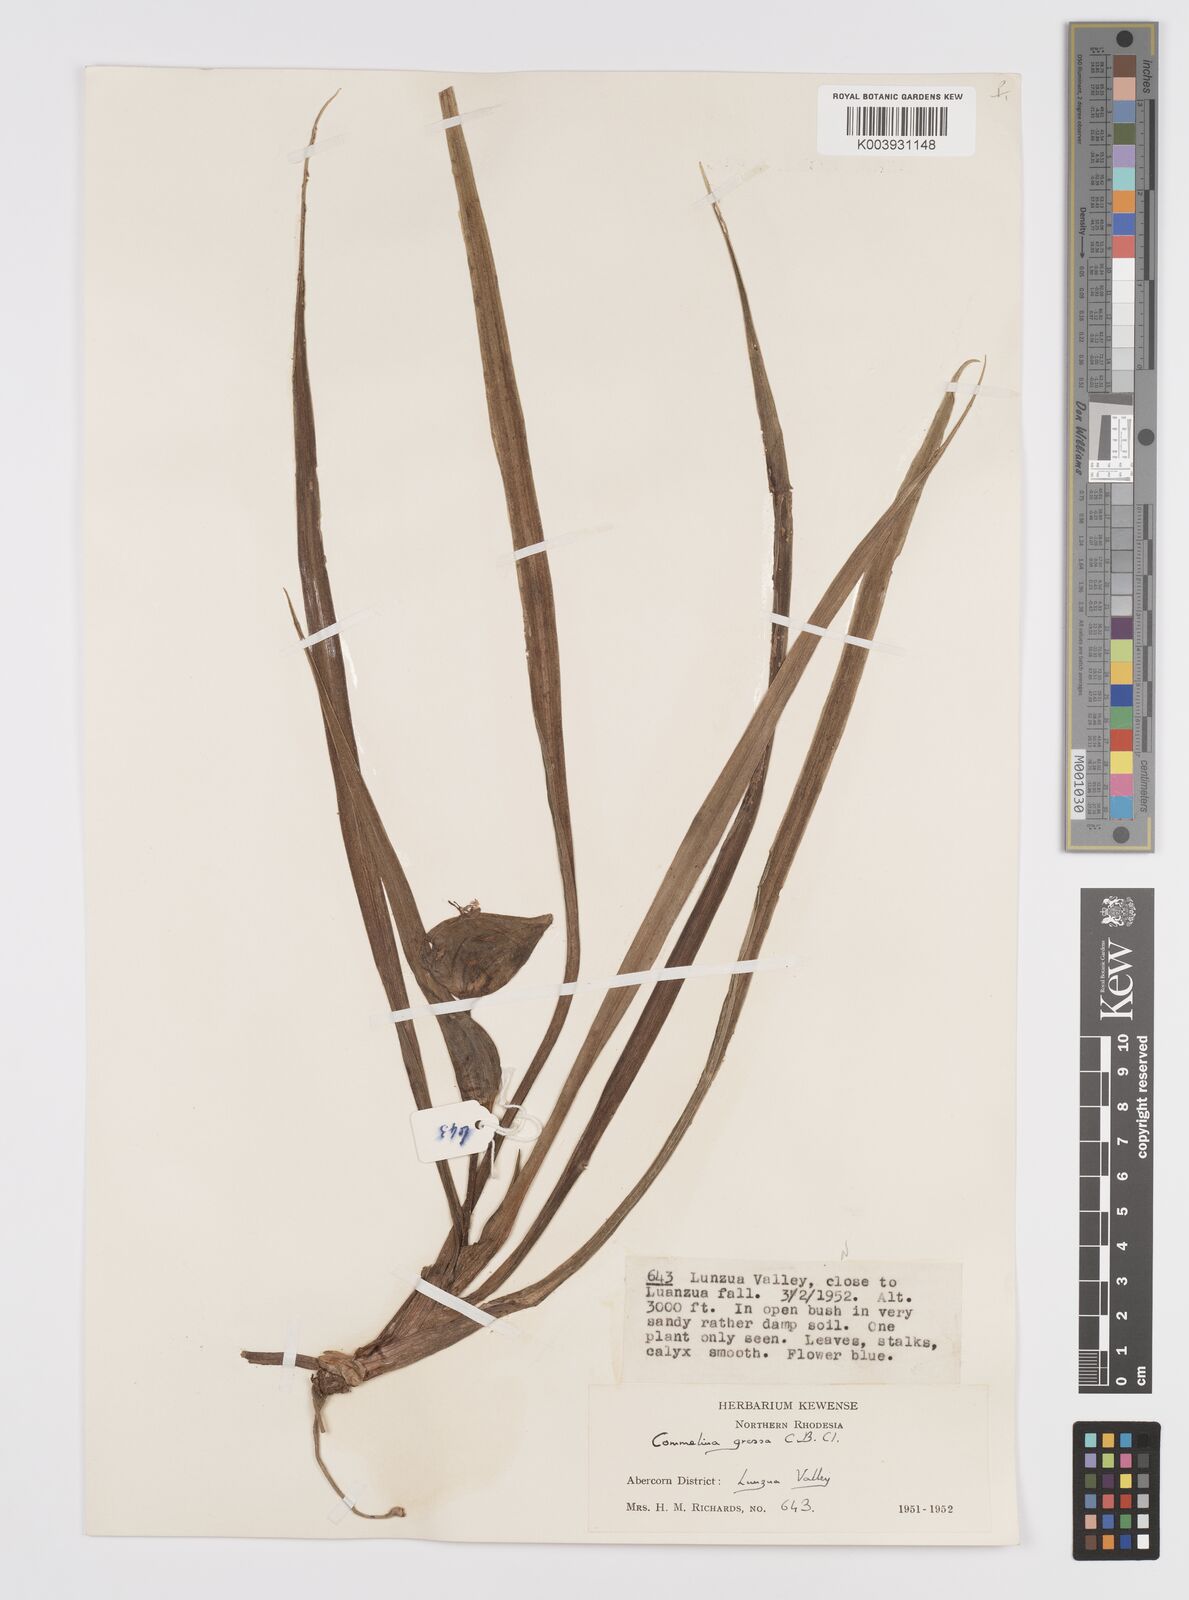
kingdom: Plantae
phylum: Tracheophyta
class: Liliopsida
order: Commelinales
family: Commelinaceae
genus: Commelina
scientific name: Commelina grossa
